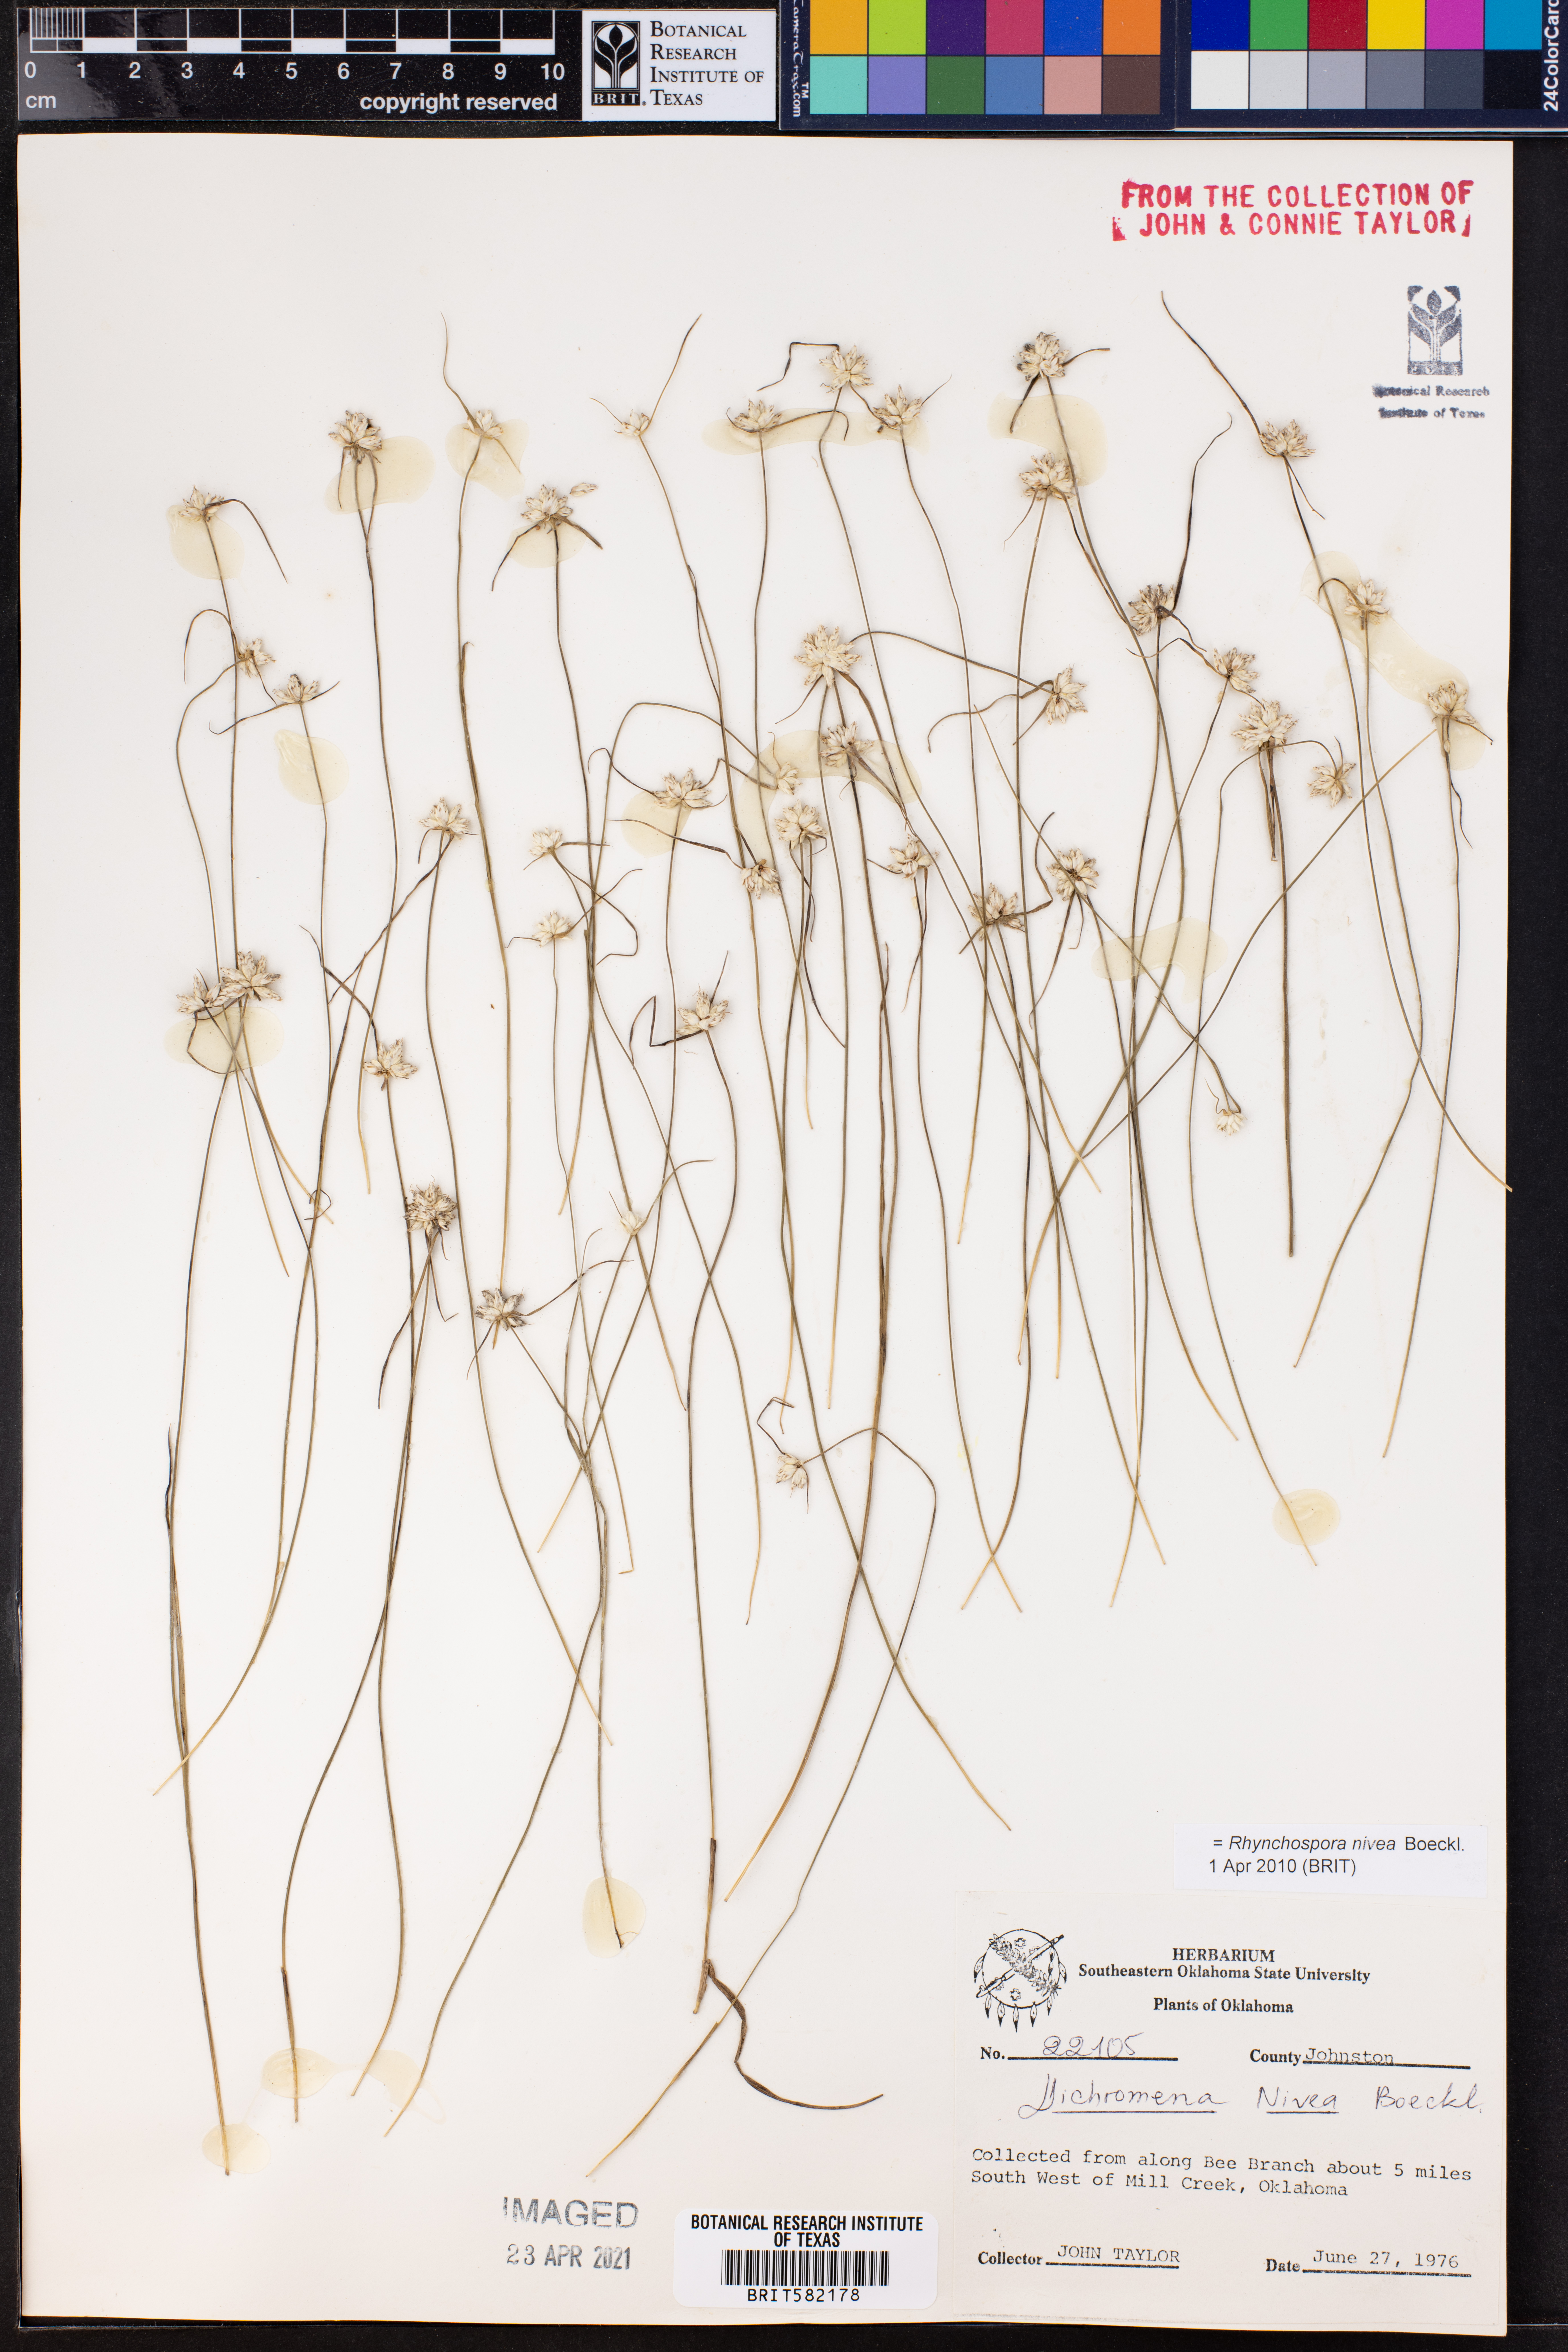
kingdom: Plantae
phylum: Tracheophyta
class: Liliopsida
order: Poales
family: Cyperaceae
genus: Rhynchospora
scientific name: Rhynchospora nivea
